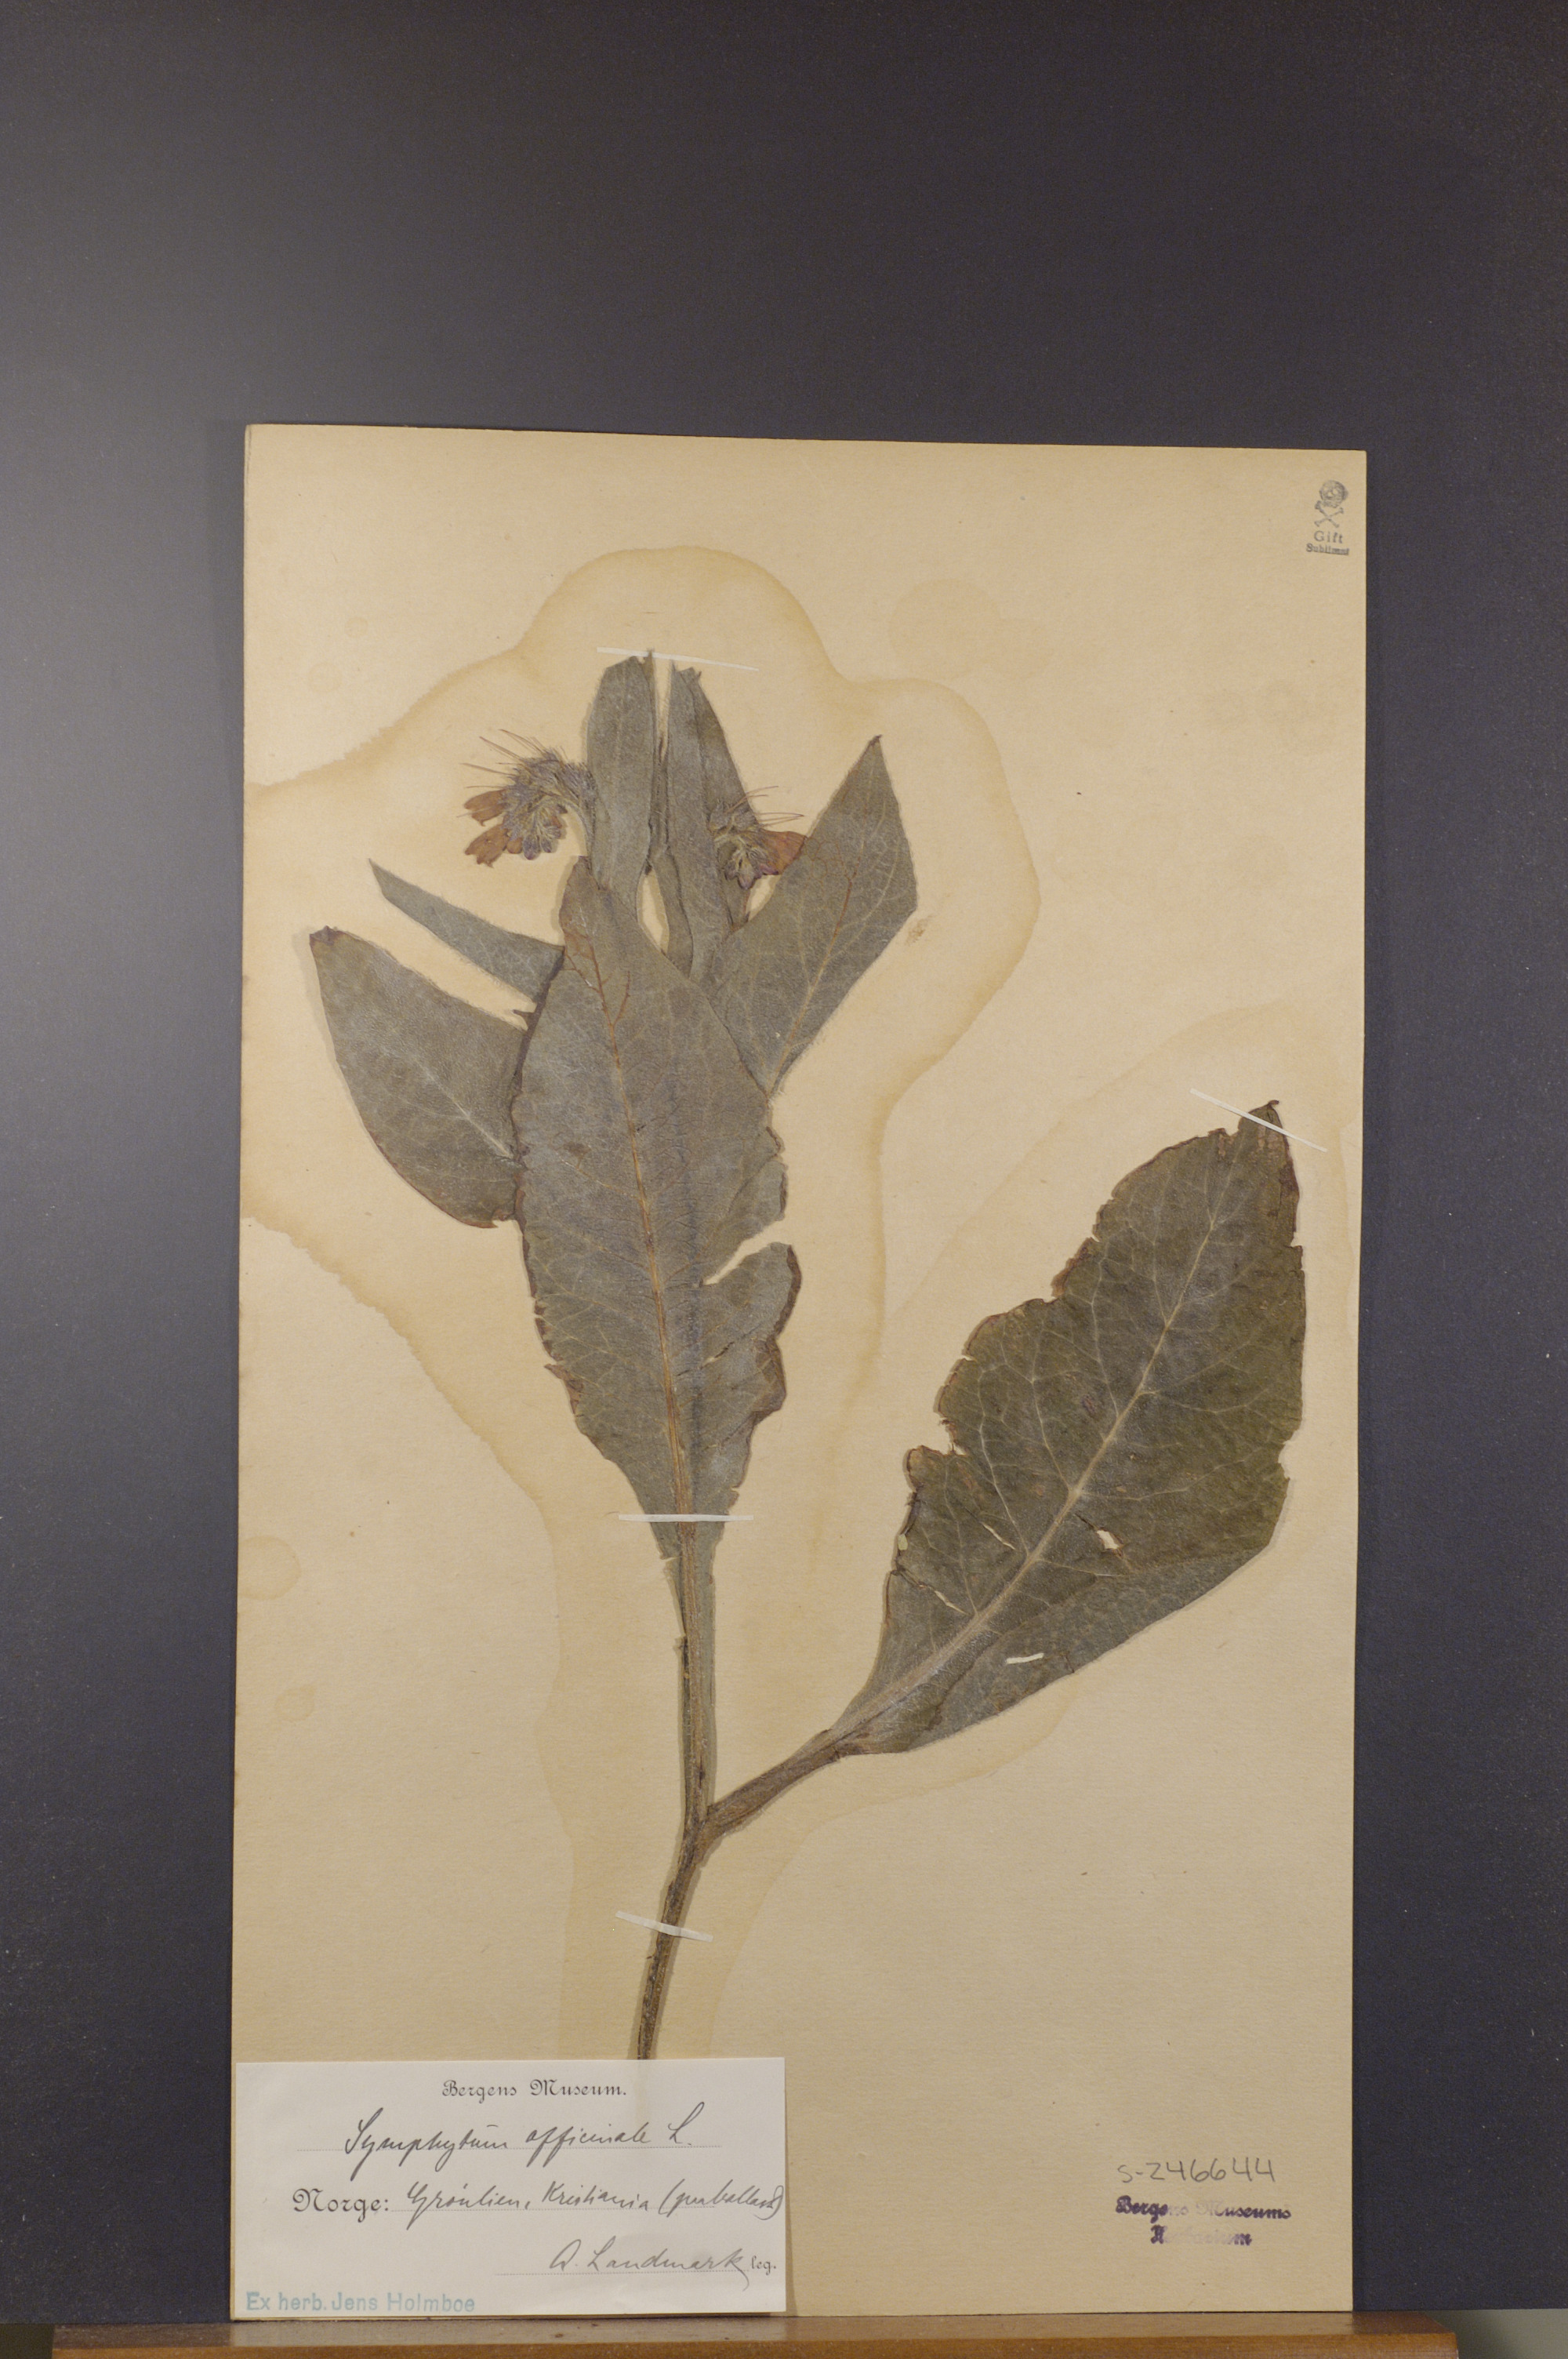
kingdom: Plantae
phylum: Tracheophyta
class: Magnoliopsida
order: Boraginales
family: Boraginaceae
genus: Symphytum
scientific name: Symphytum officinale
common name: Common comfrey
